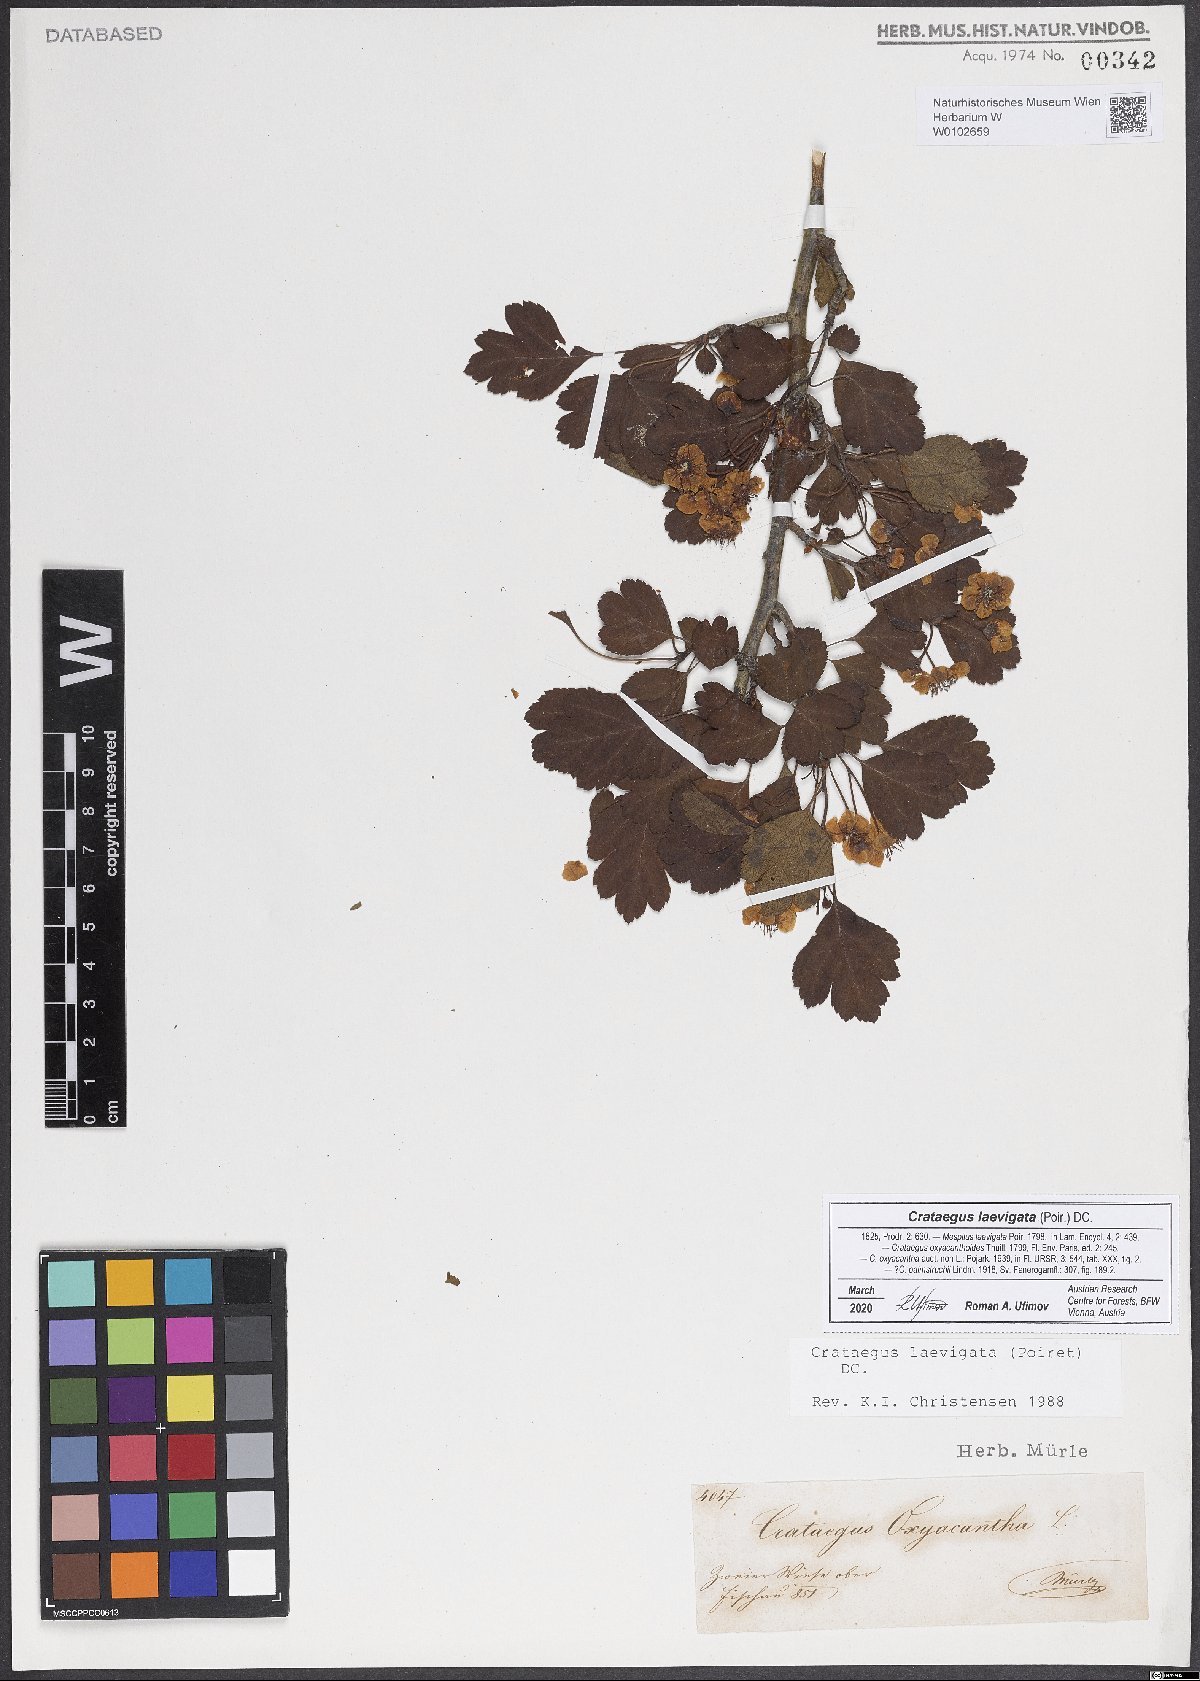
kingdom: Plantae
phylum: Tracheophyta
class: Magnoliopsida
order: Rosales
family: Rosaceae
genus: Crataegus
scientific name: Crataegus laevigata
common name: Midland hawthorn
